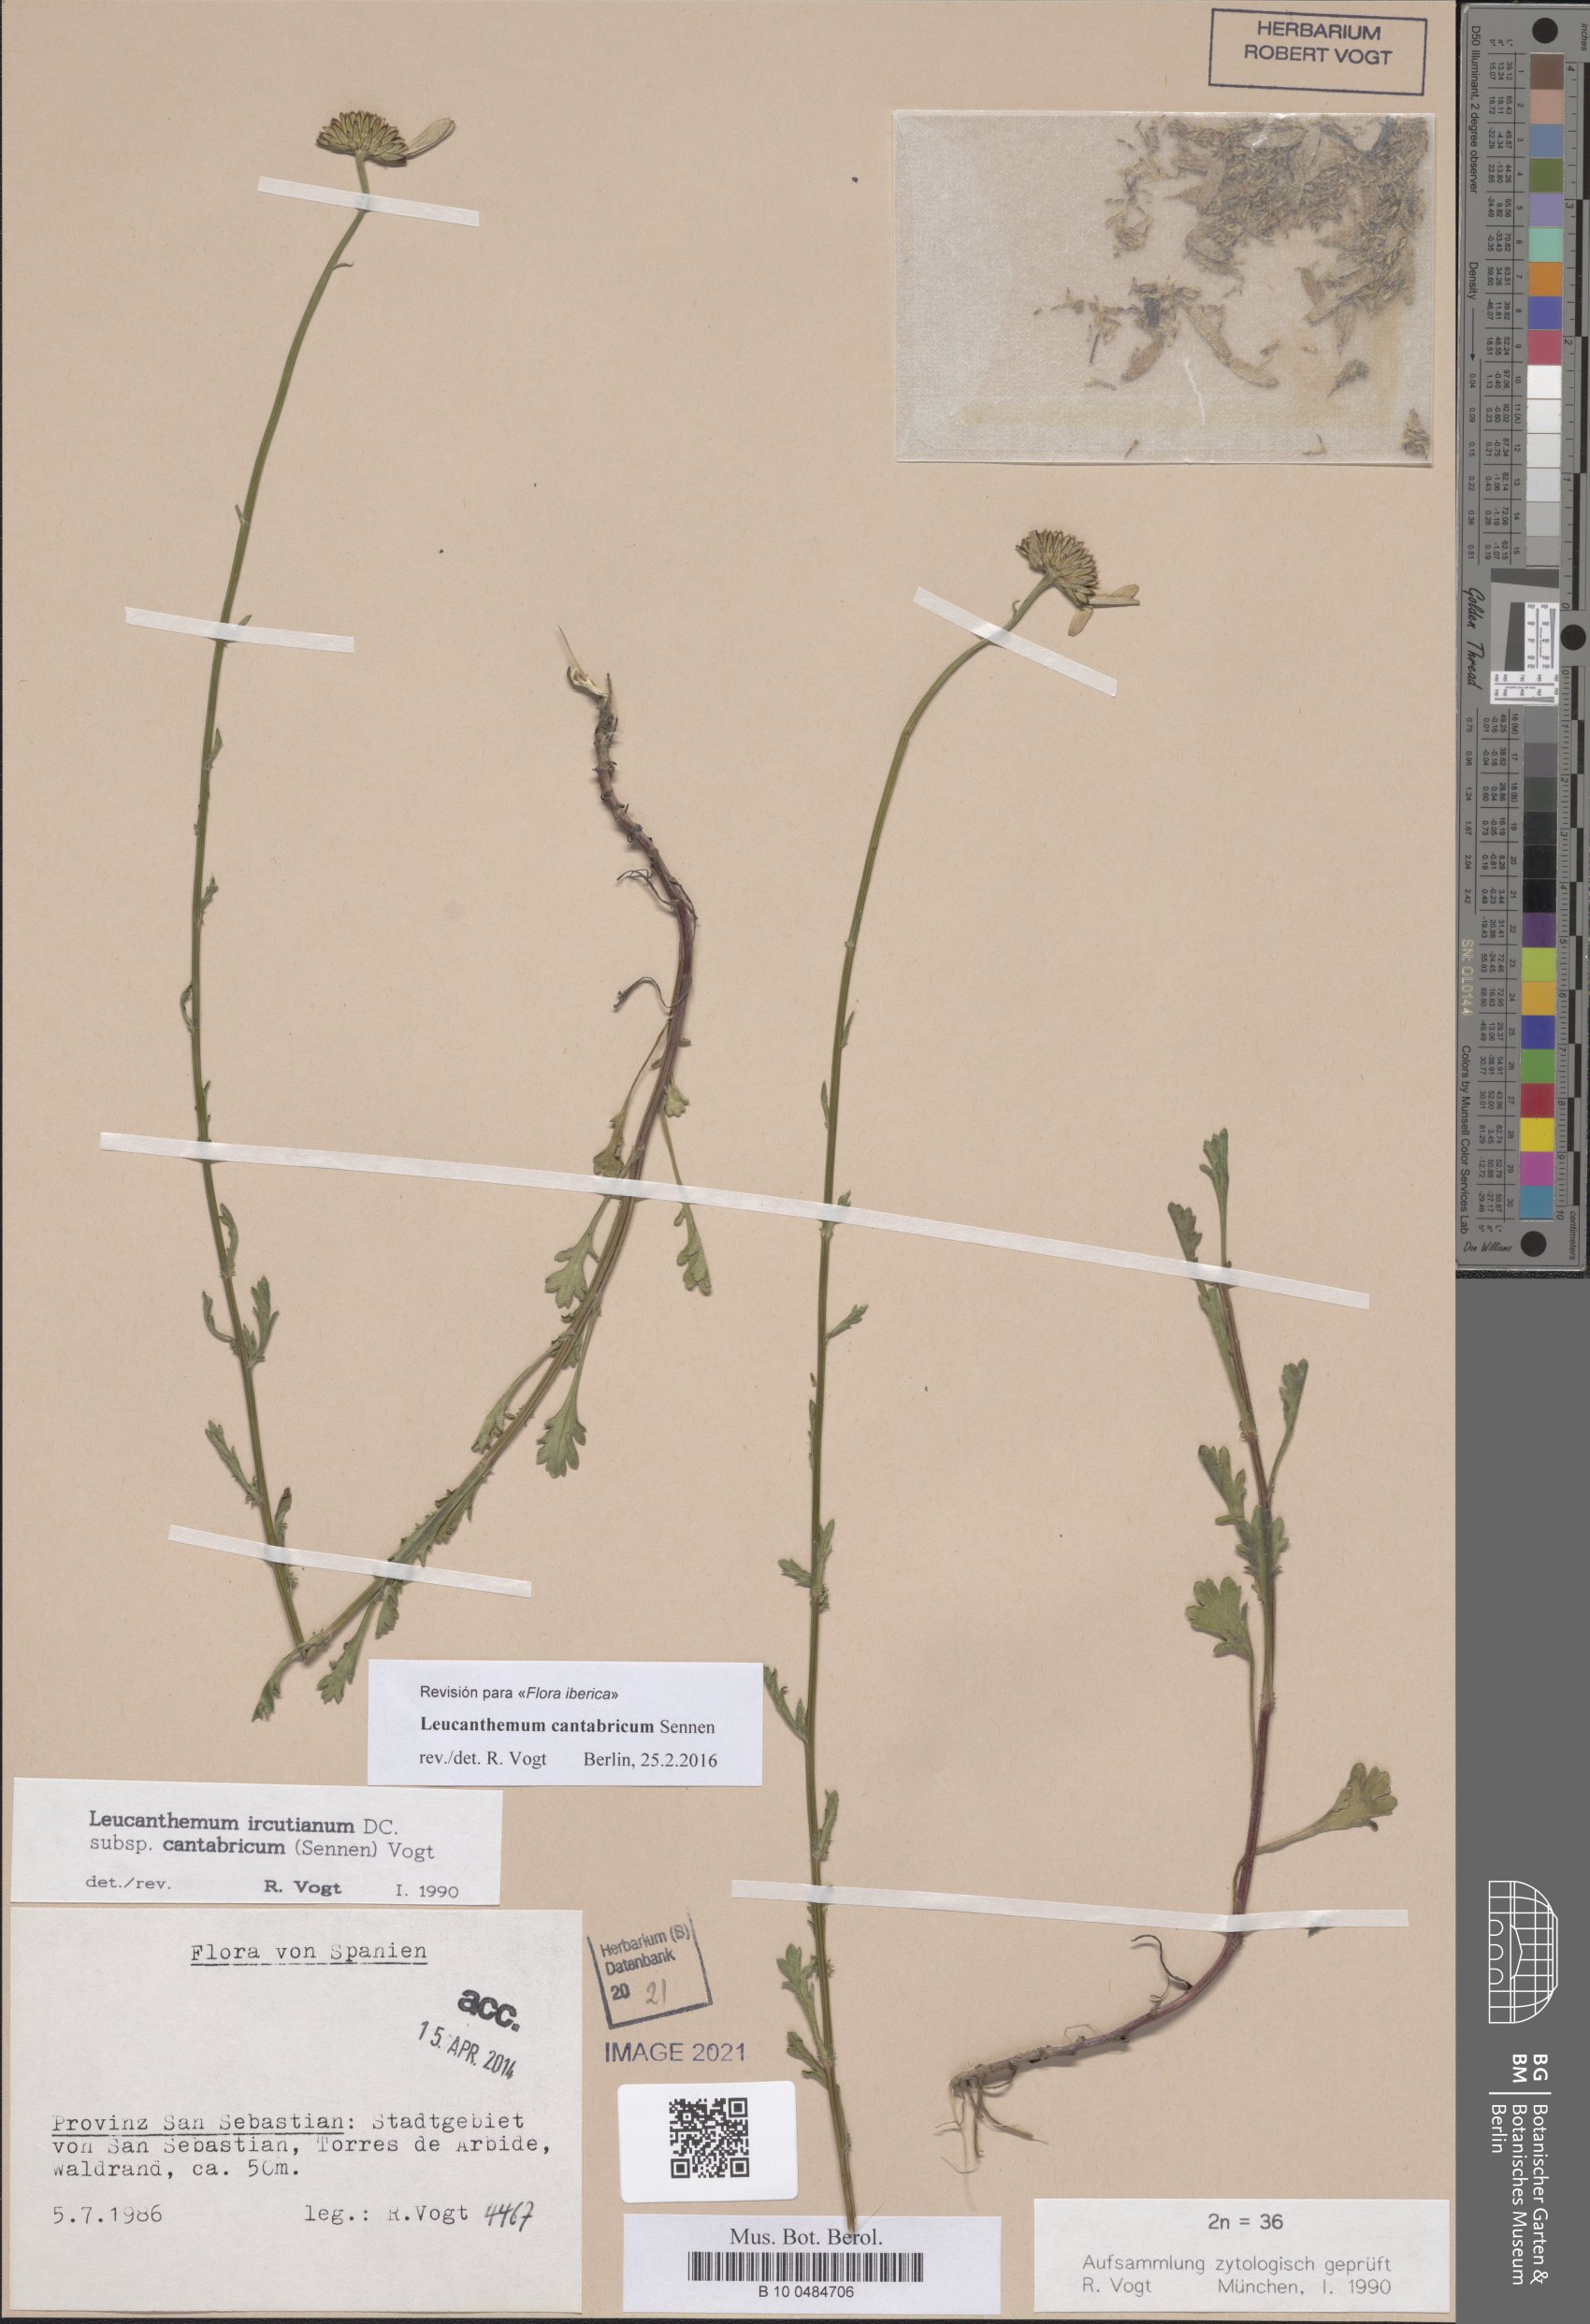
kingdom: Plantae
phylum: Tracheophyta
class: Magnoliopsida
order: Asterales
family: Asteraceae
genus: Leucanthemum
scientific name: Leucanthemum cantabricum
